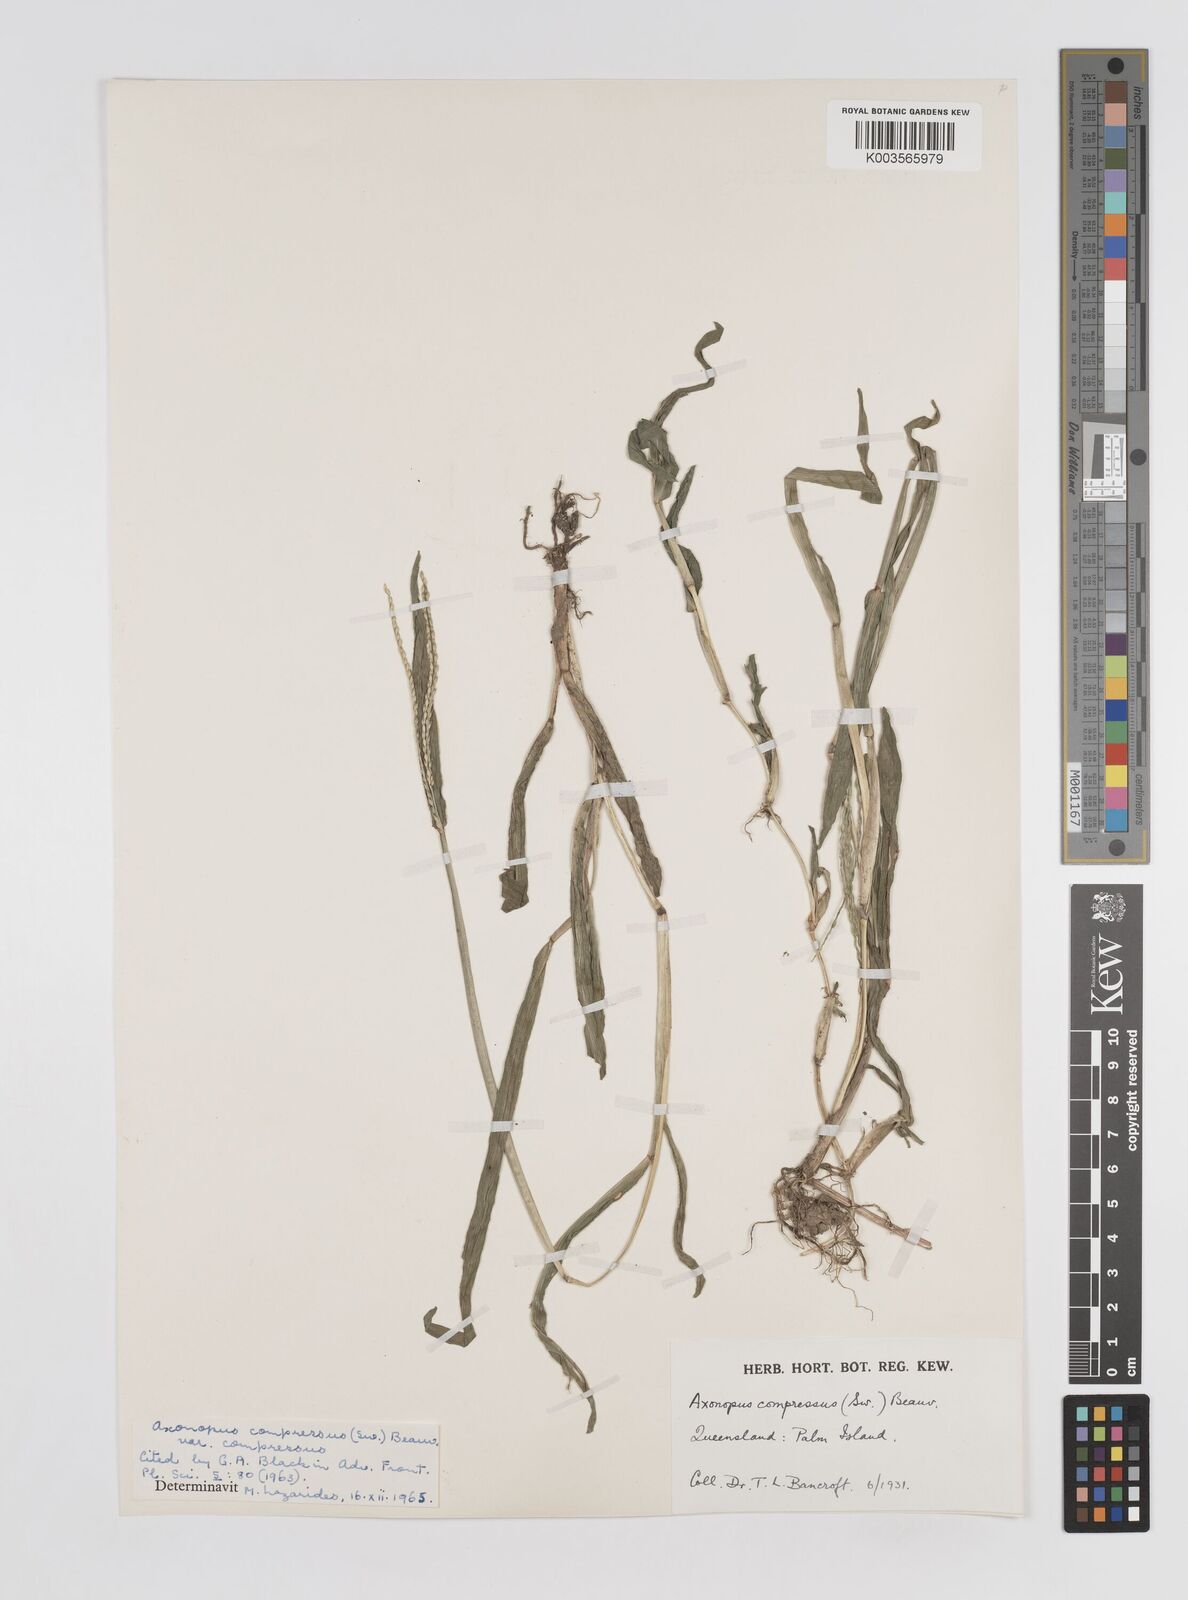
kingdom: Plantae
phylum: Tracheophyta
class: Liliopsida
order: Poales
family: Poaceae
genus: Axonopus
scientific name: Axonopus compressus
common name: American carpet grass
